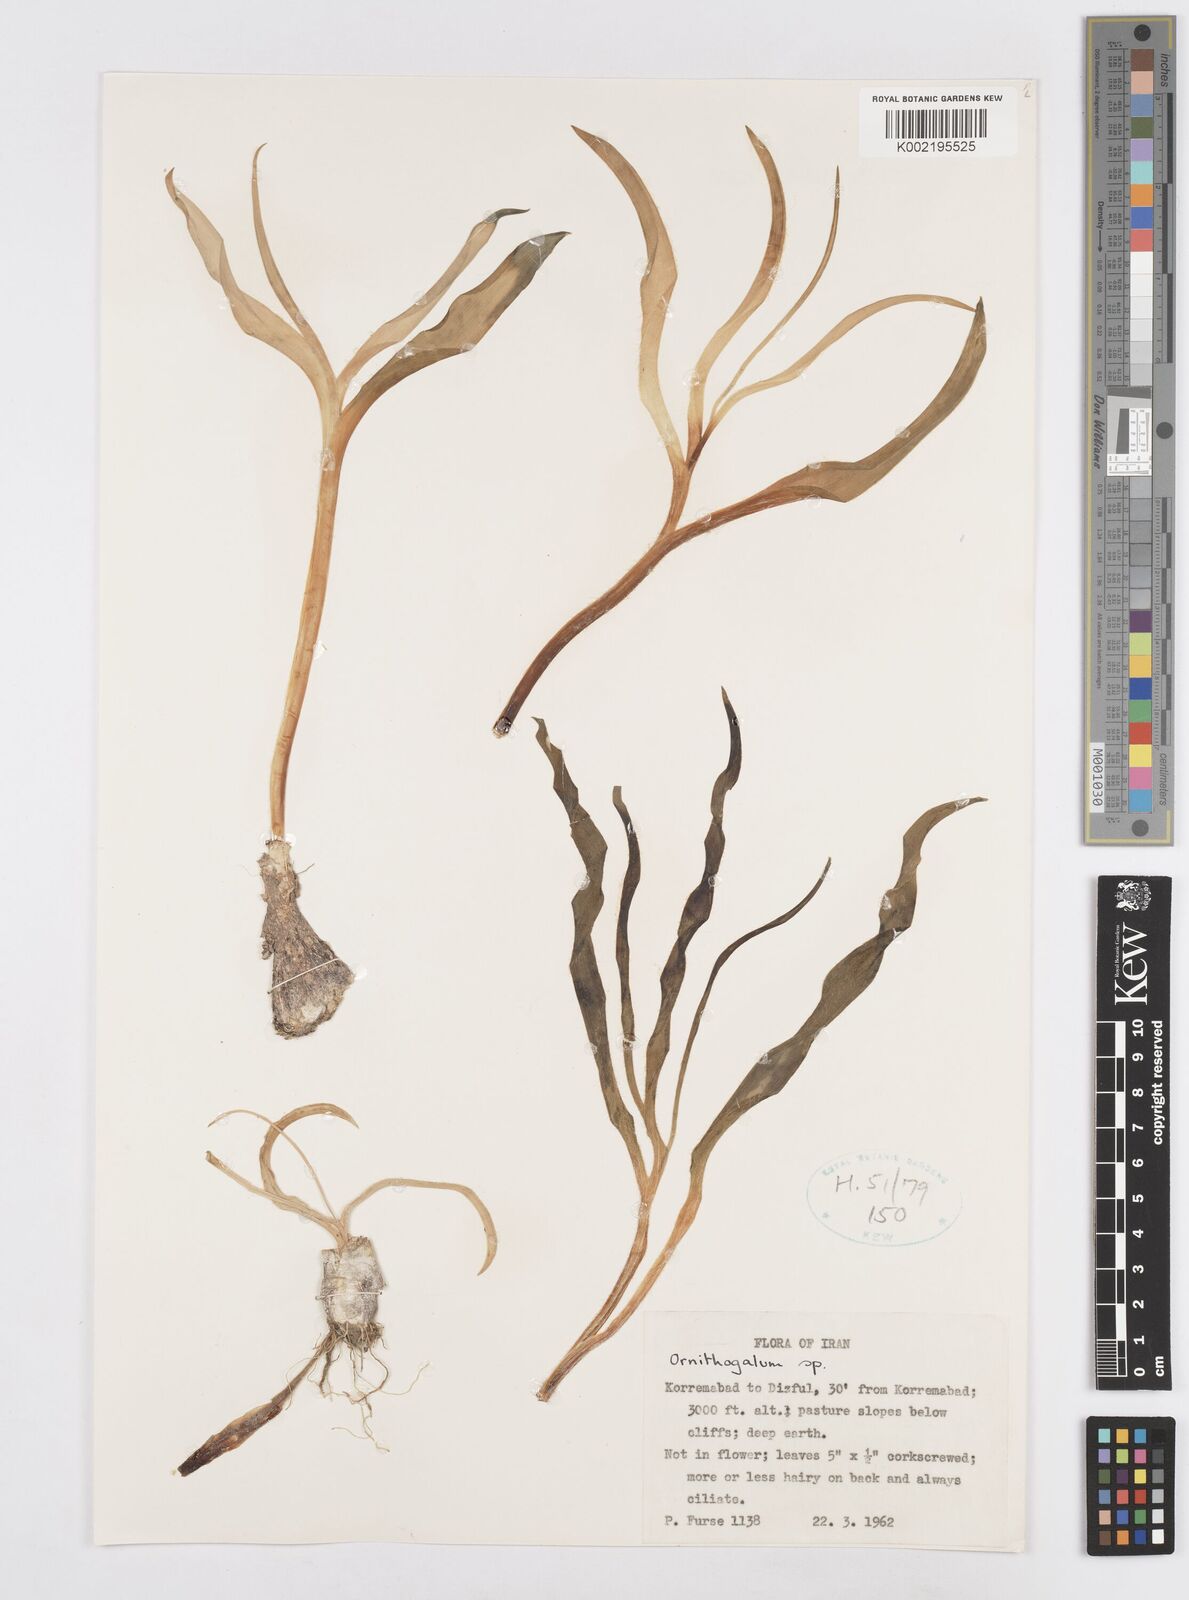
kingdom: Plantae
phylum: Tracheophyta
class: Liliopsida
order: Asparagales
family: Asparagaceae
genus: Ornithogalum
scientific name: Ornithogalum
